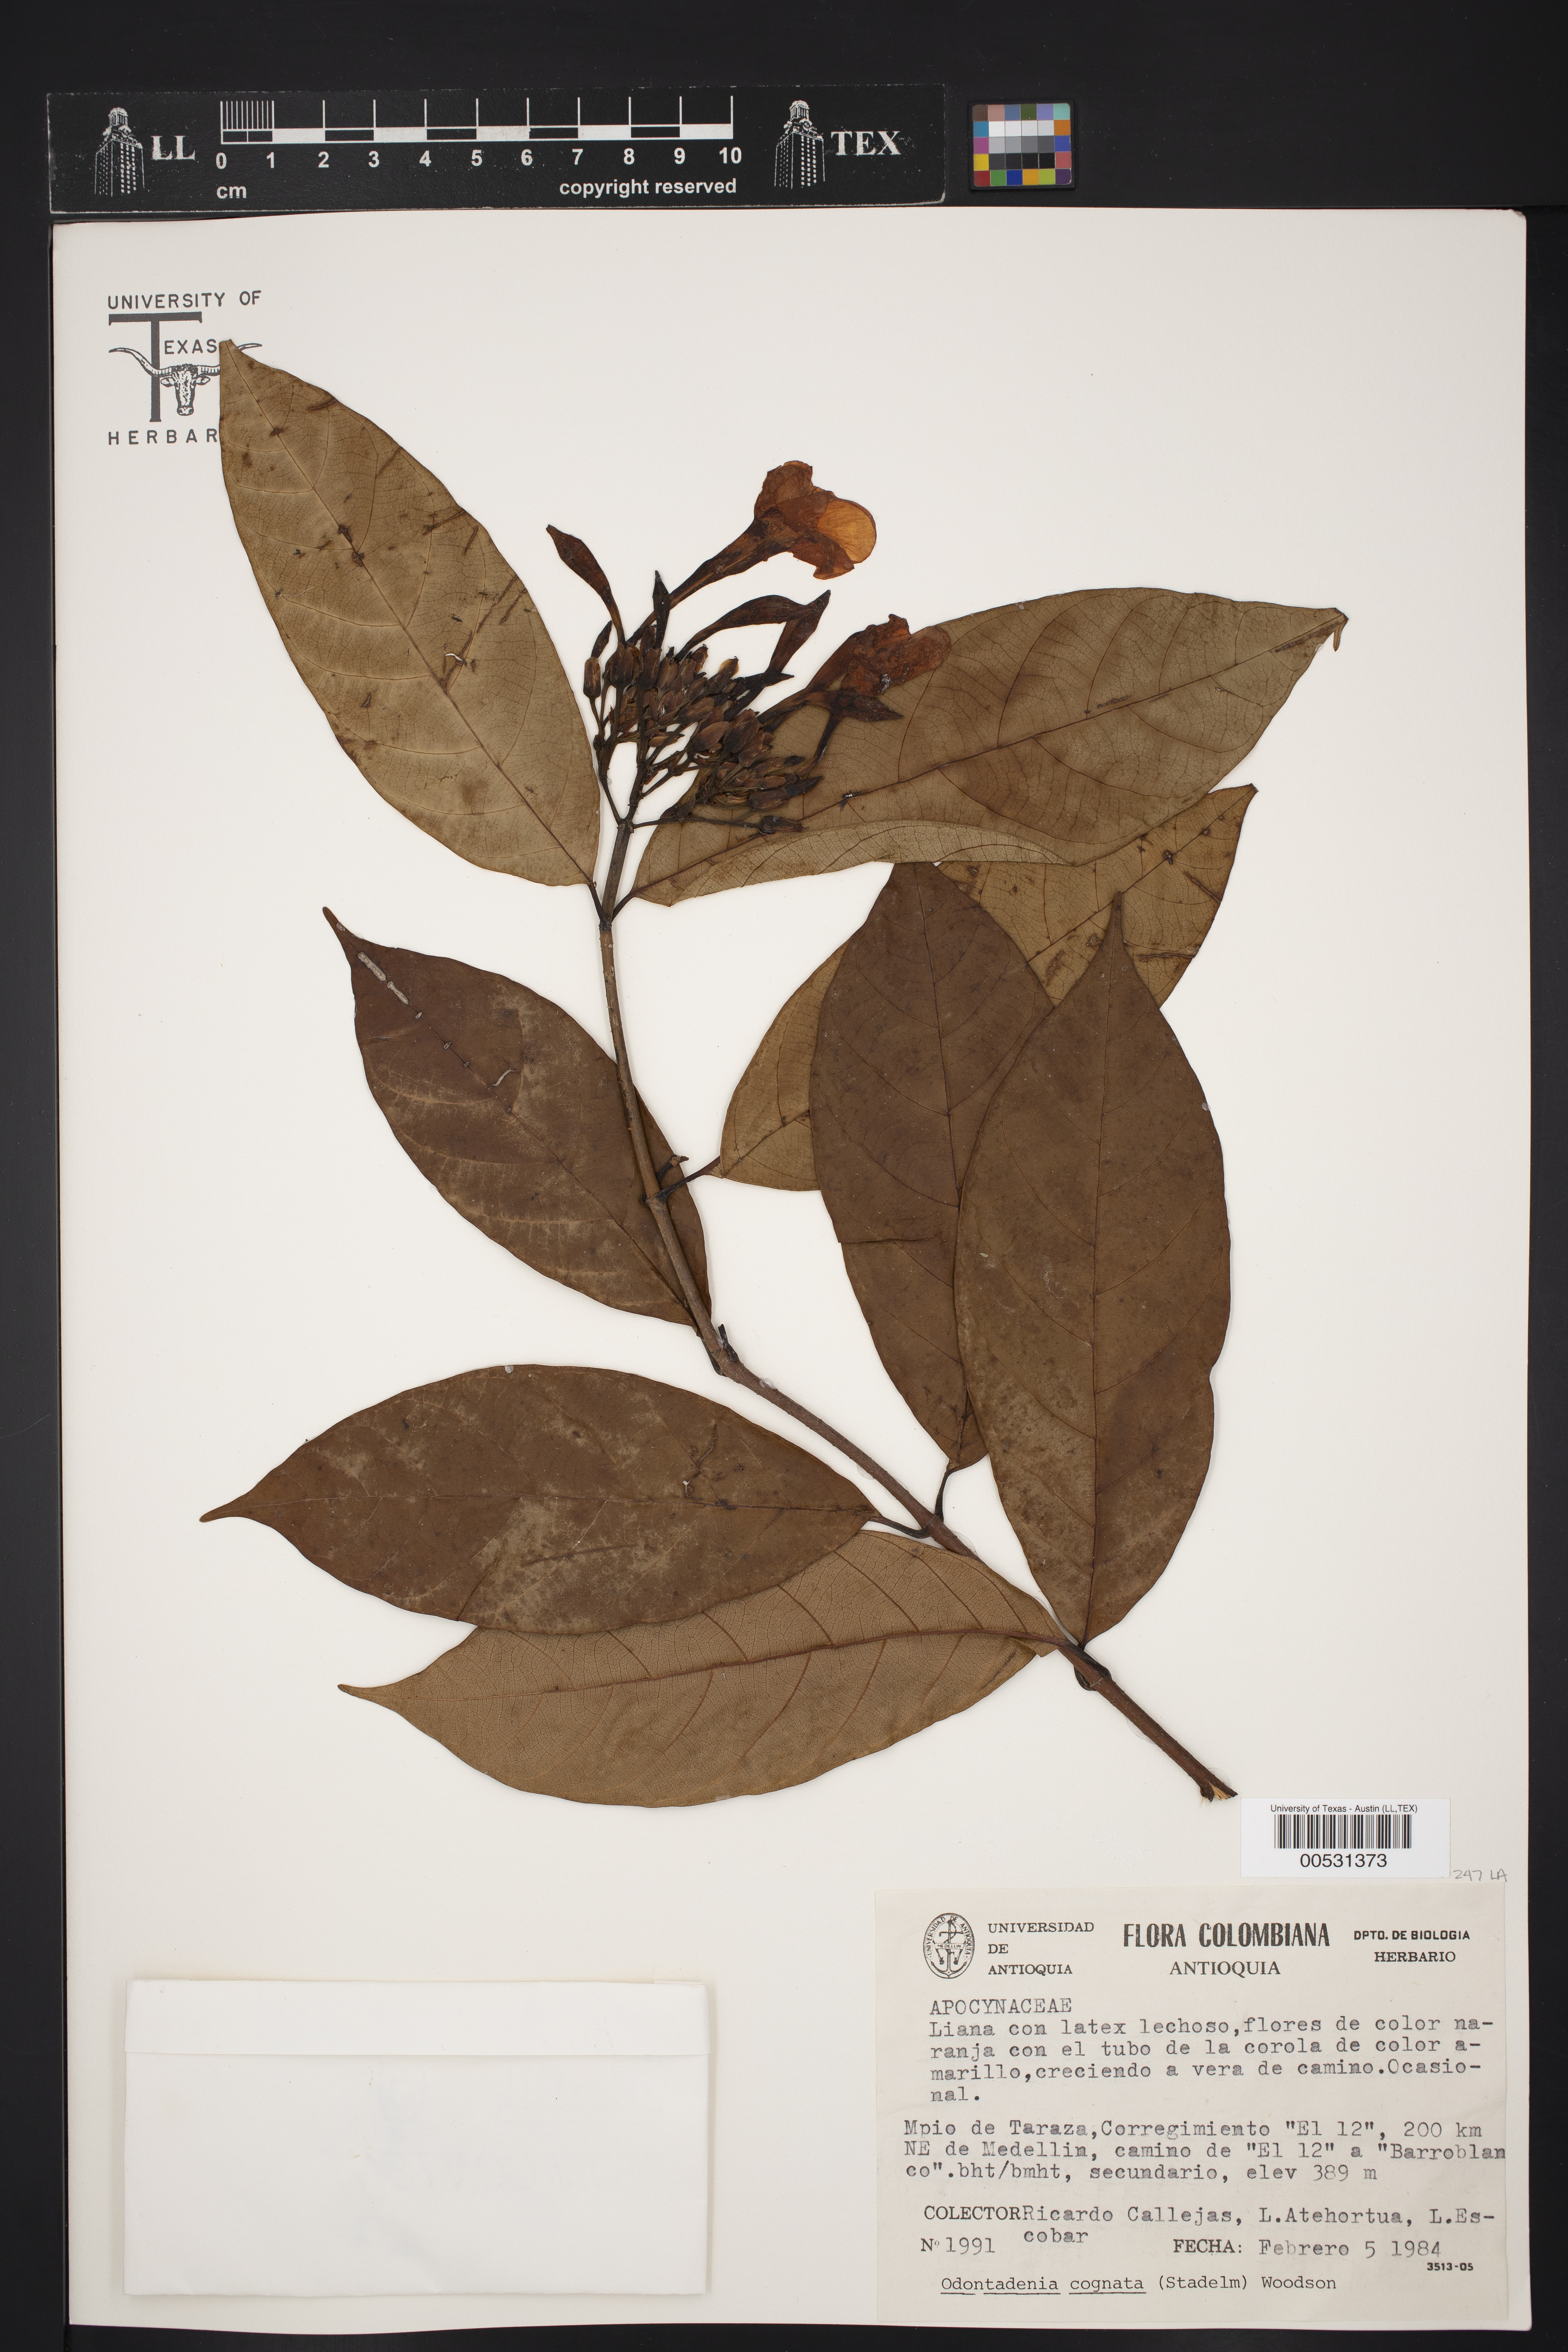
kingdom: Plantae
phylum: Tracheophyta
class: Magnoliopsida
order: Gentianales
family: Apocynaceae
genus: Odontadenia
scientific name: Odontadenia verrucosa
